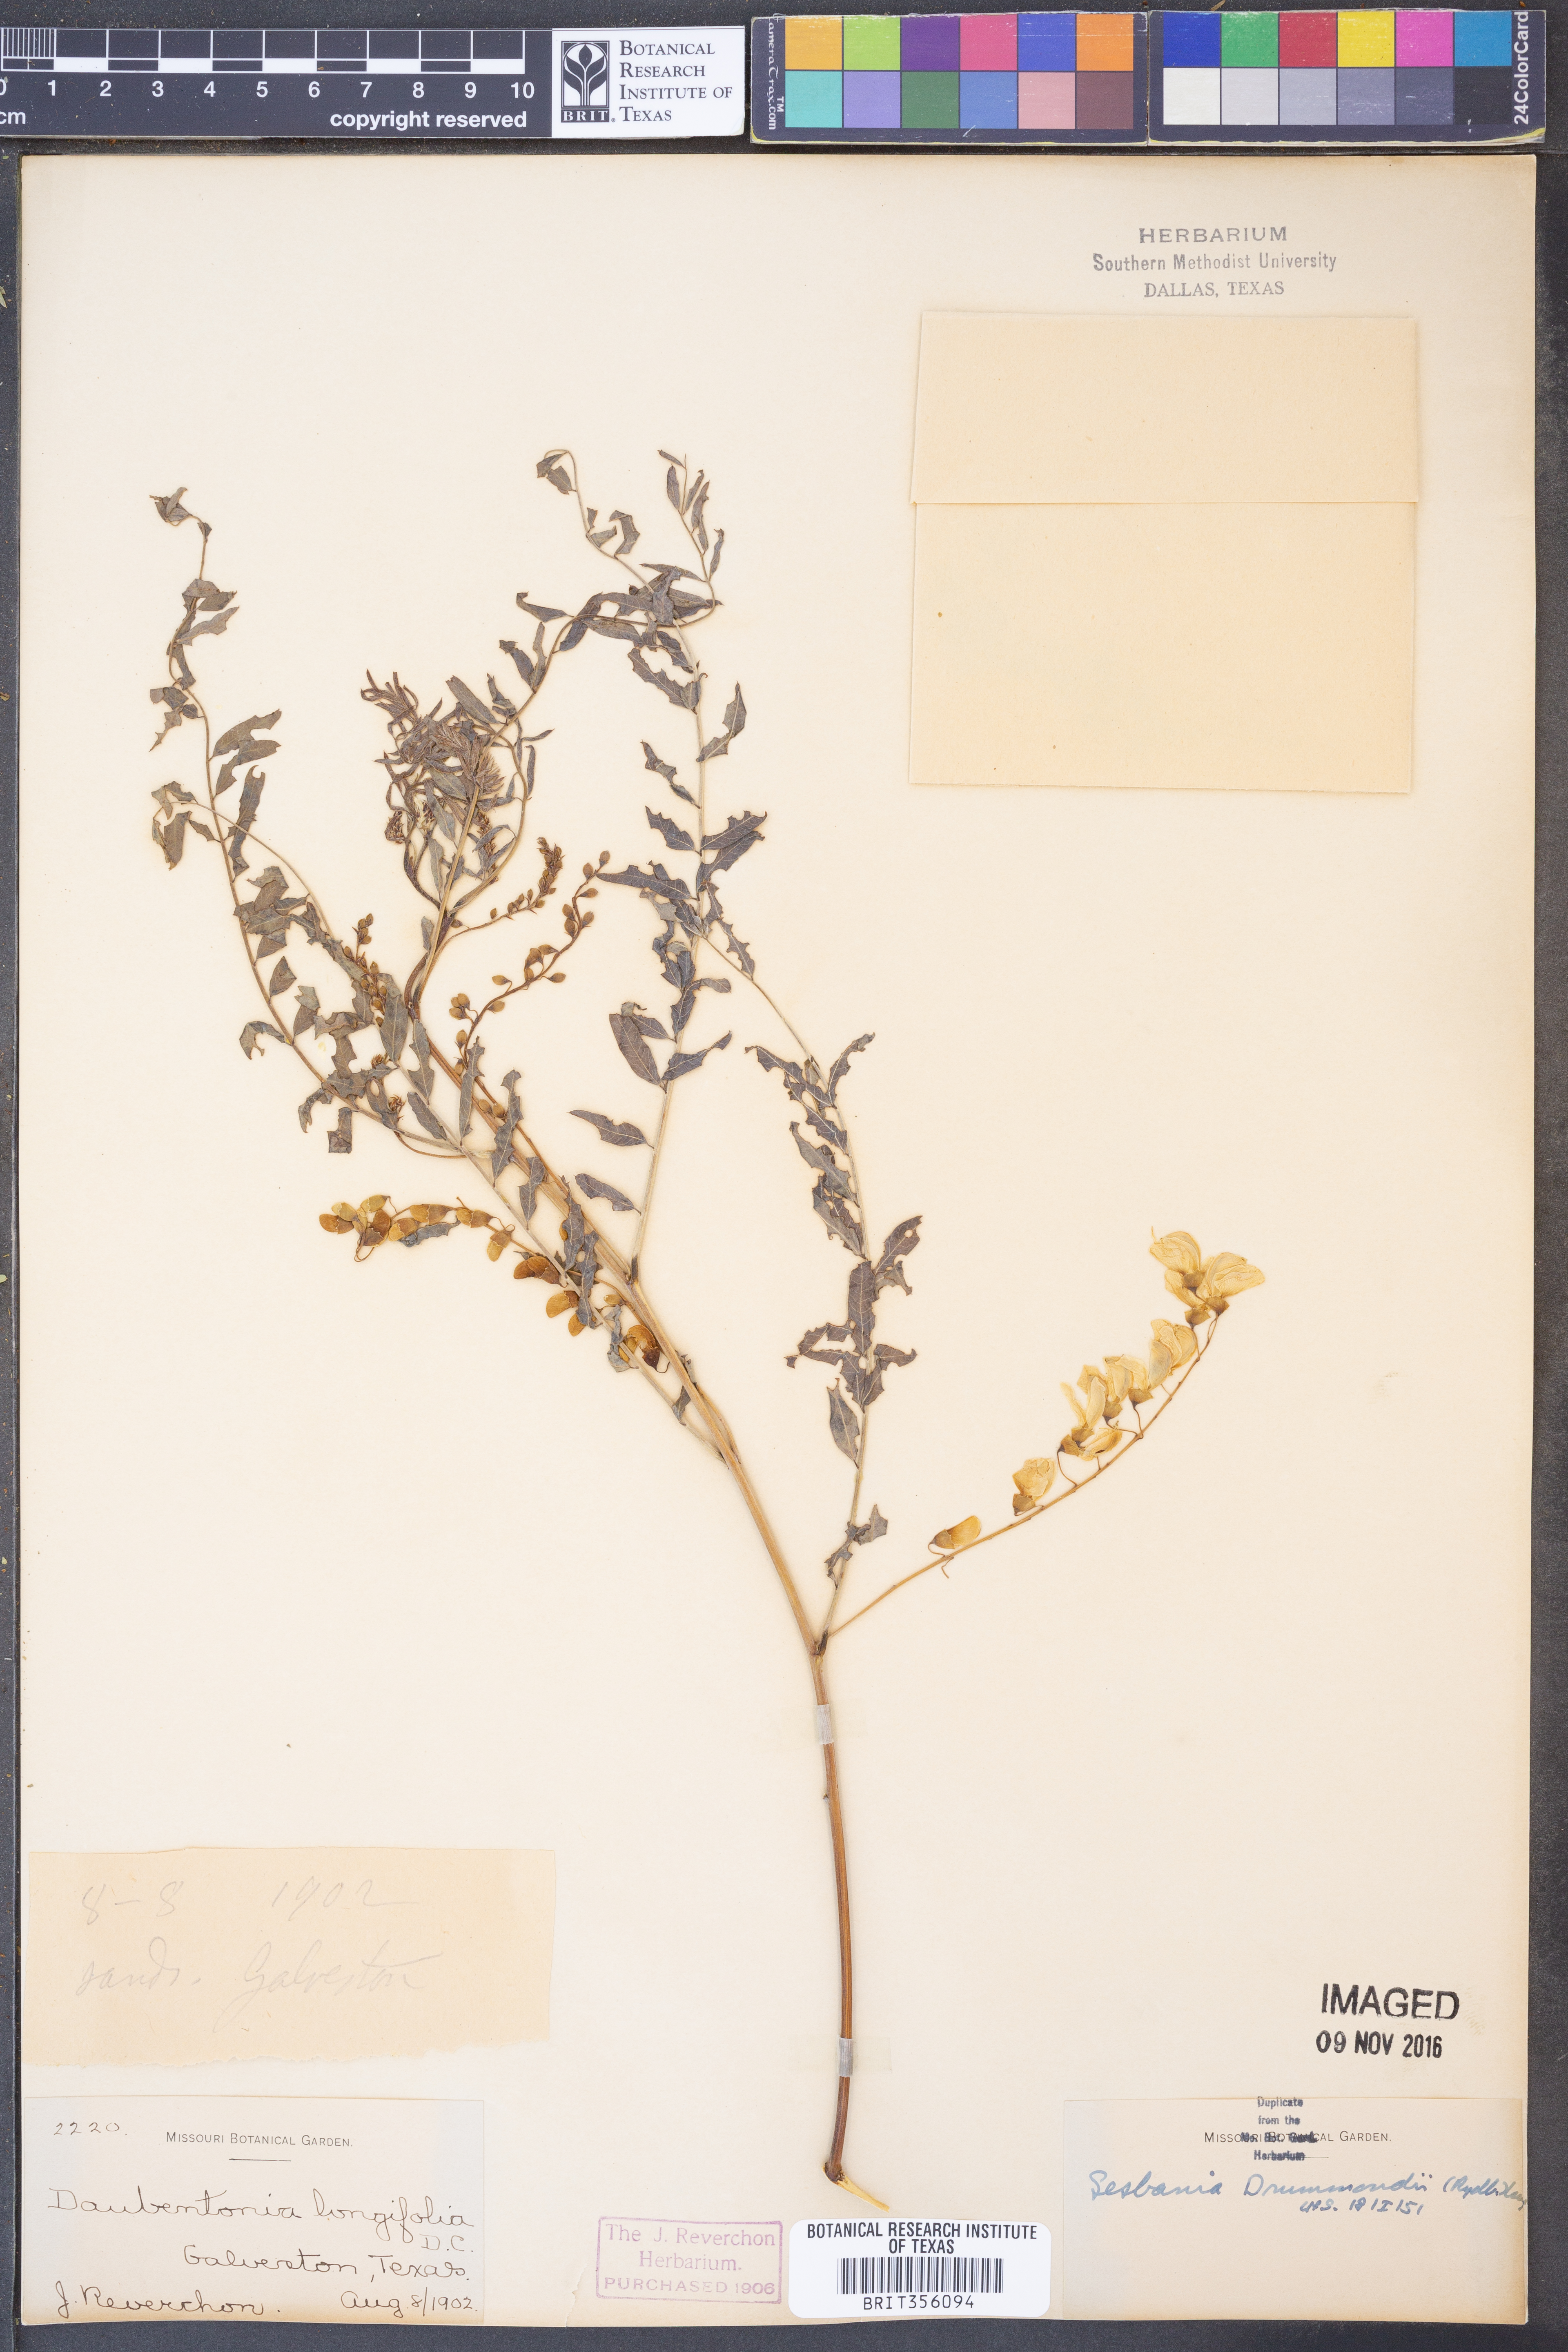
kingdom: Plantae
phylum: Tracheophyta
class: Magnoliopsida
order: Fabales
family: Fabaceae
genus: Sesbania
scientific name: Sesbania drummondii
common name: Poison-bean
